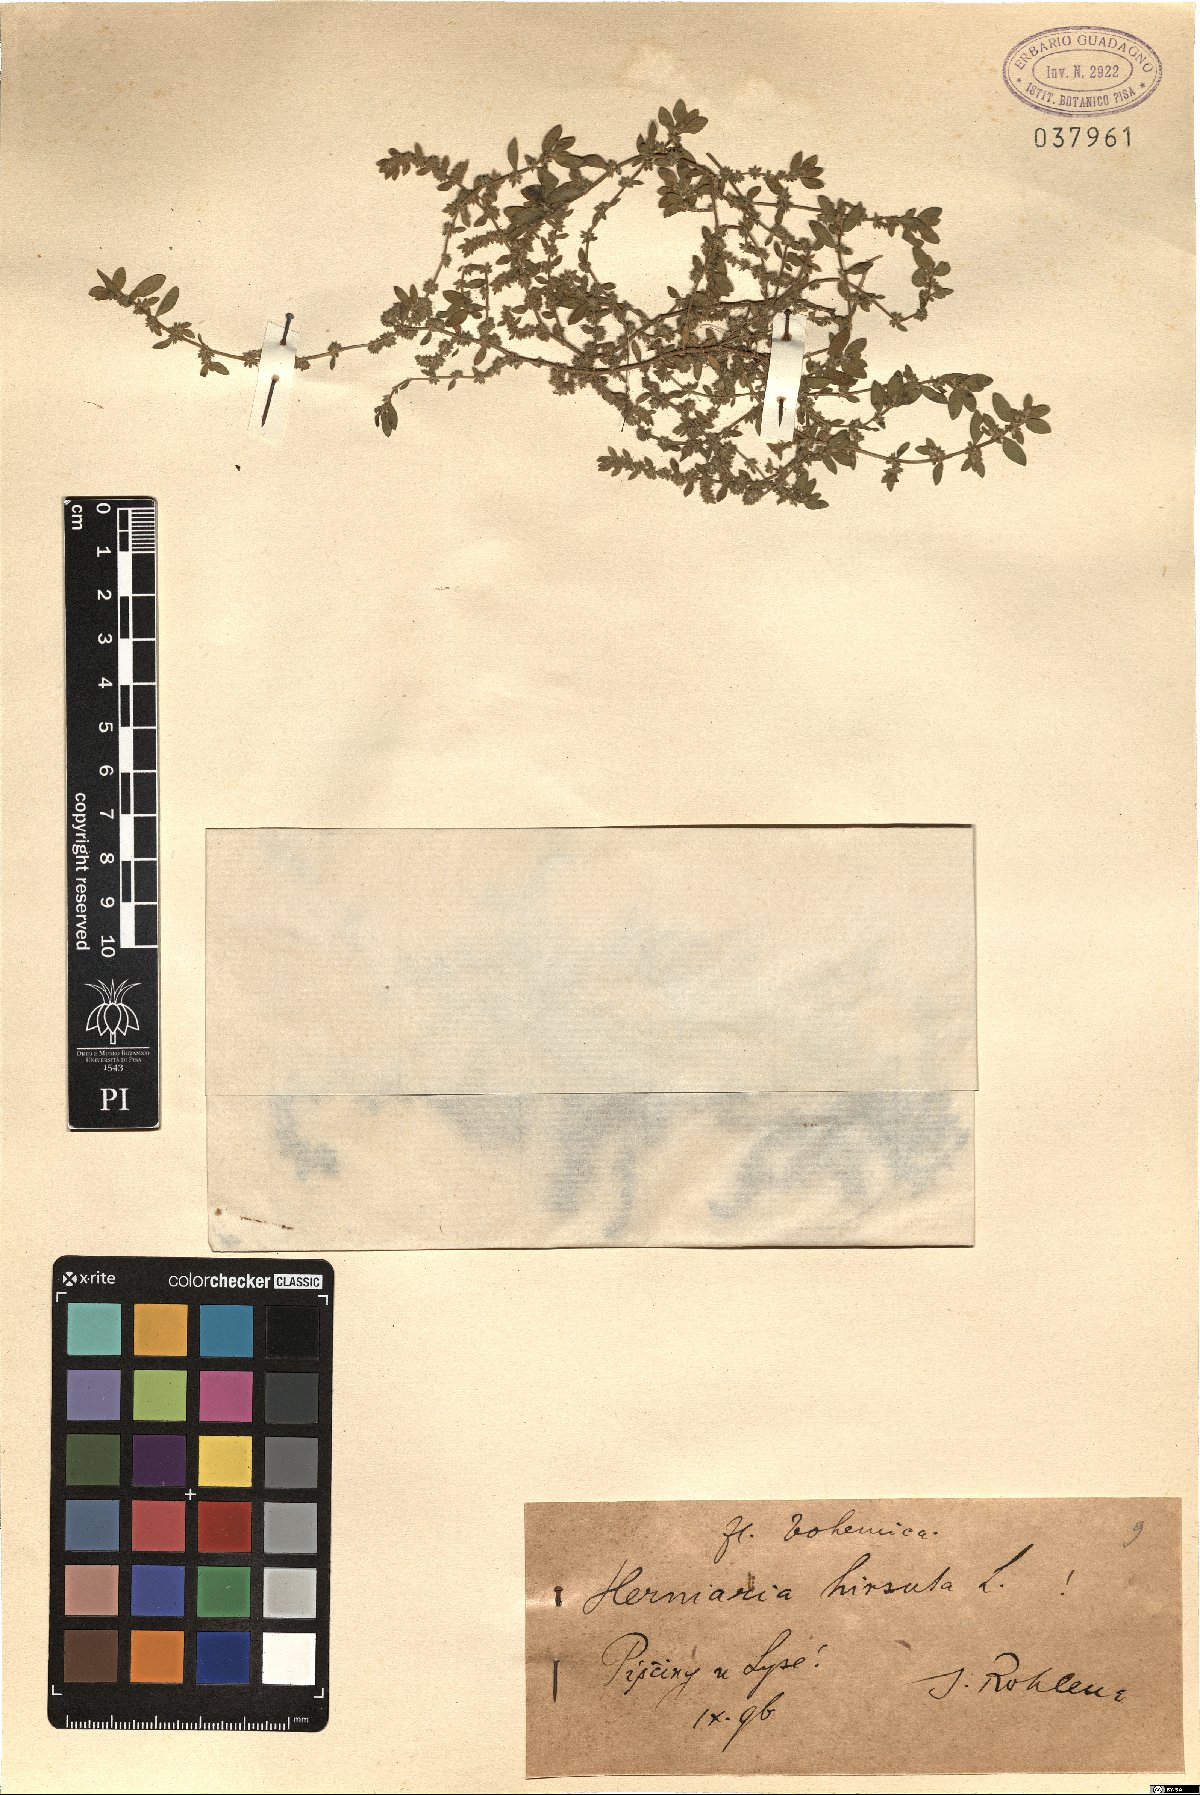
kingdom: Plantae
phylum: Tracheophyta
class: Magnoliopsida
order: Caryophyllales
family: Caryophyllaceae
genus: Herniaria
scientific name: Herniaria hirsuta
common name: Hairy rupturewort
